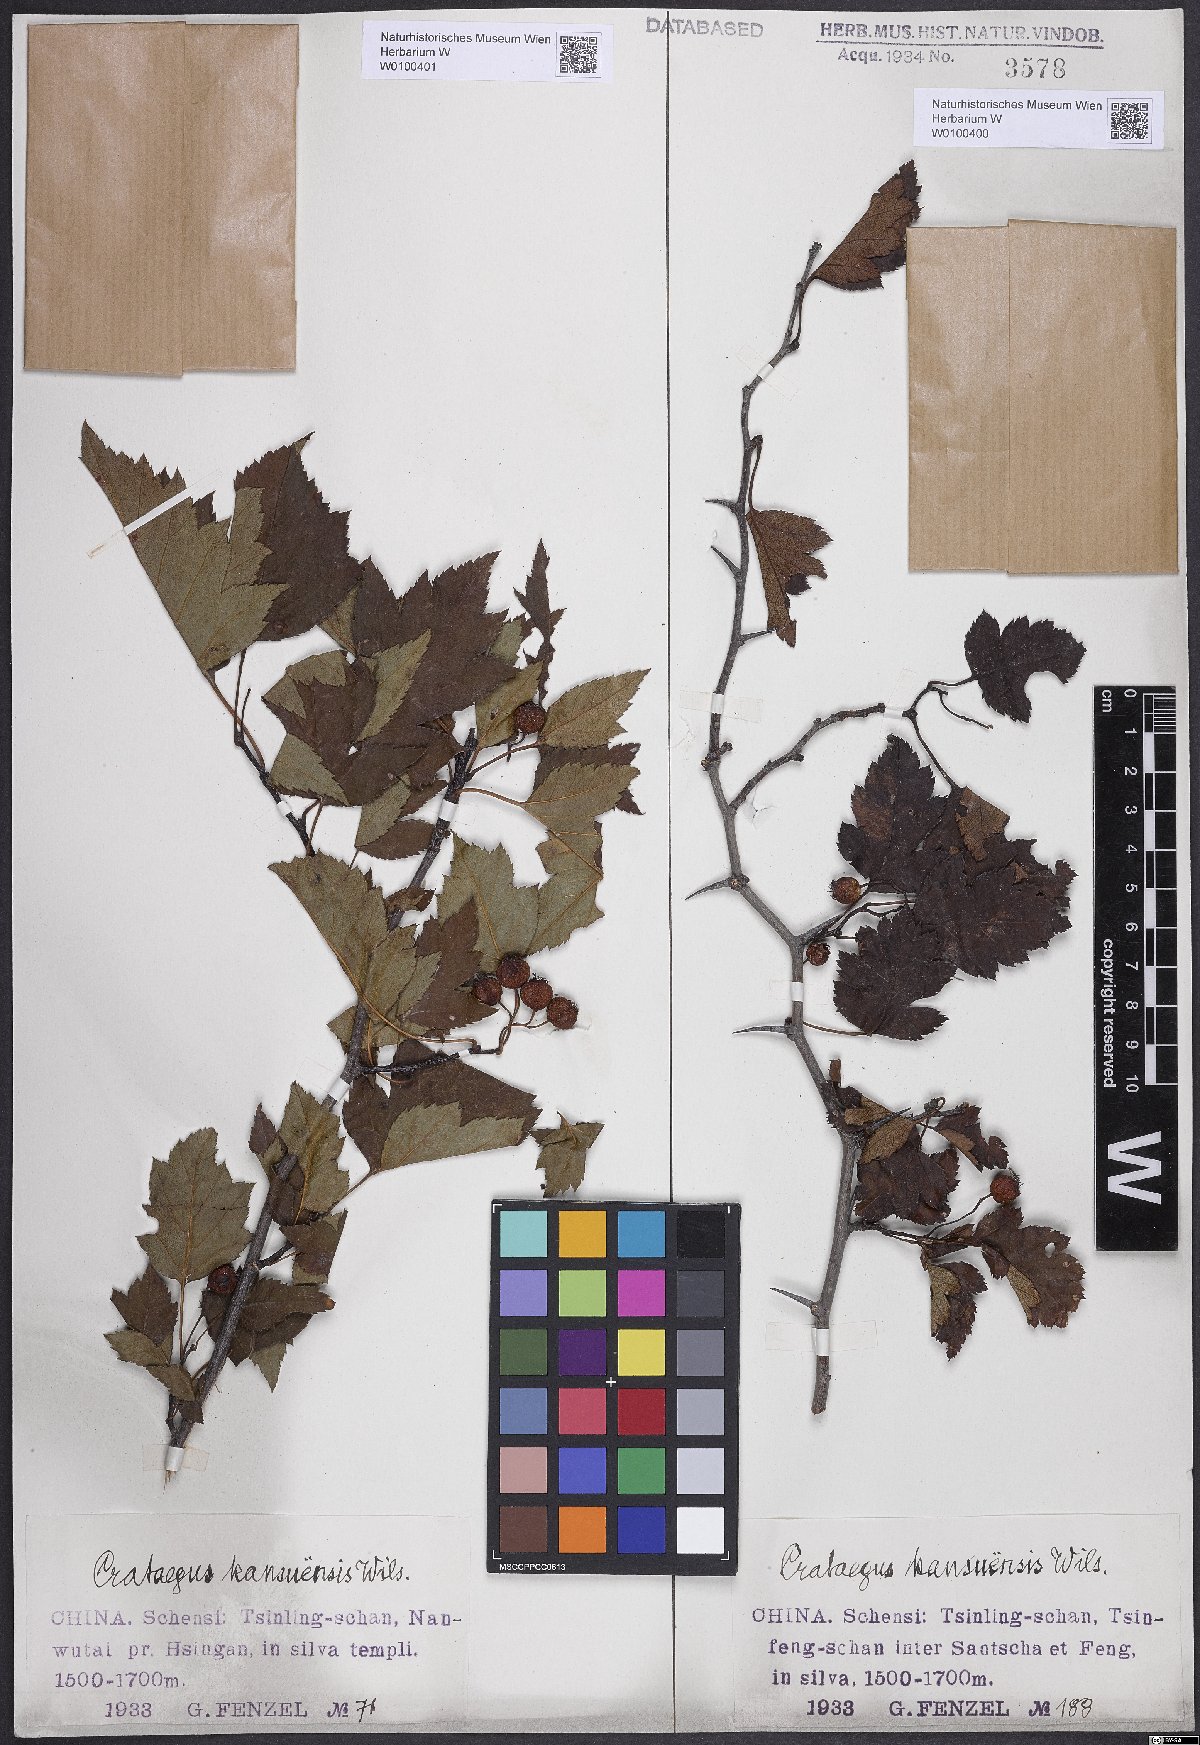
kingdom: Plantae
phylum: Tracheophyta
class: Magnoliopsida
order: Rosales
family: Rosaceae
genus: Crataegus
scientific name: Crataegus kansuensis
